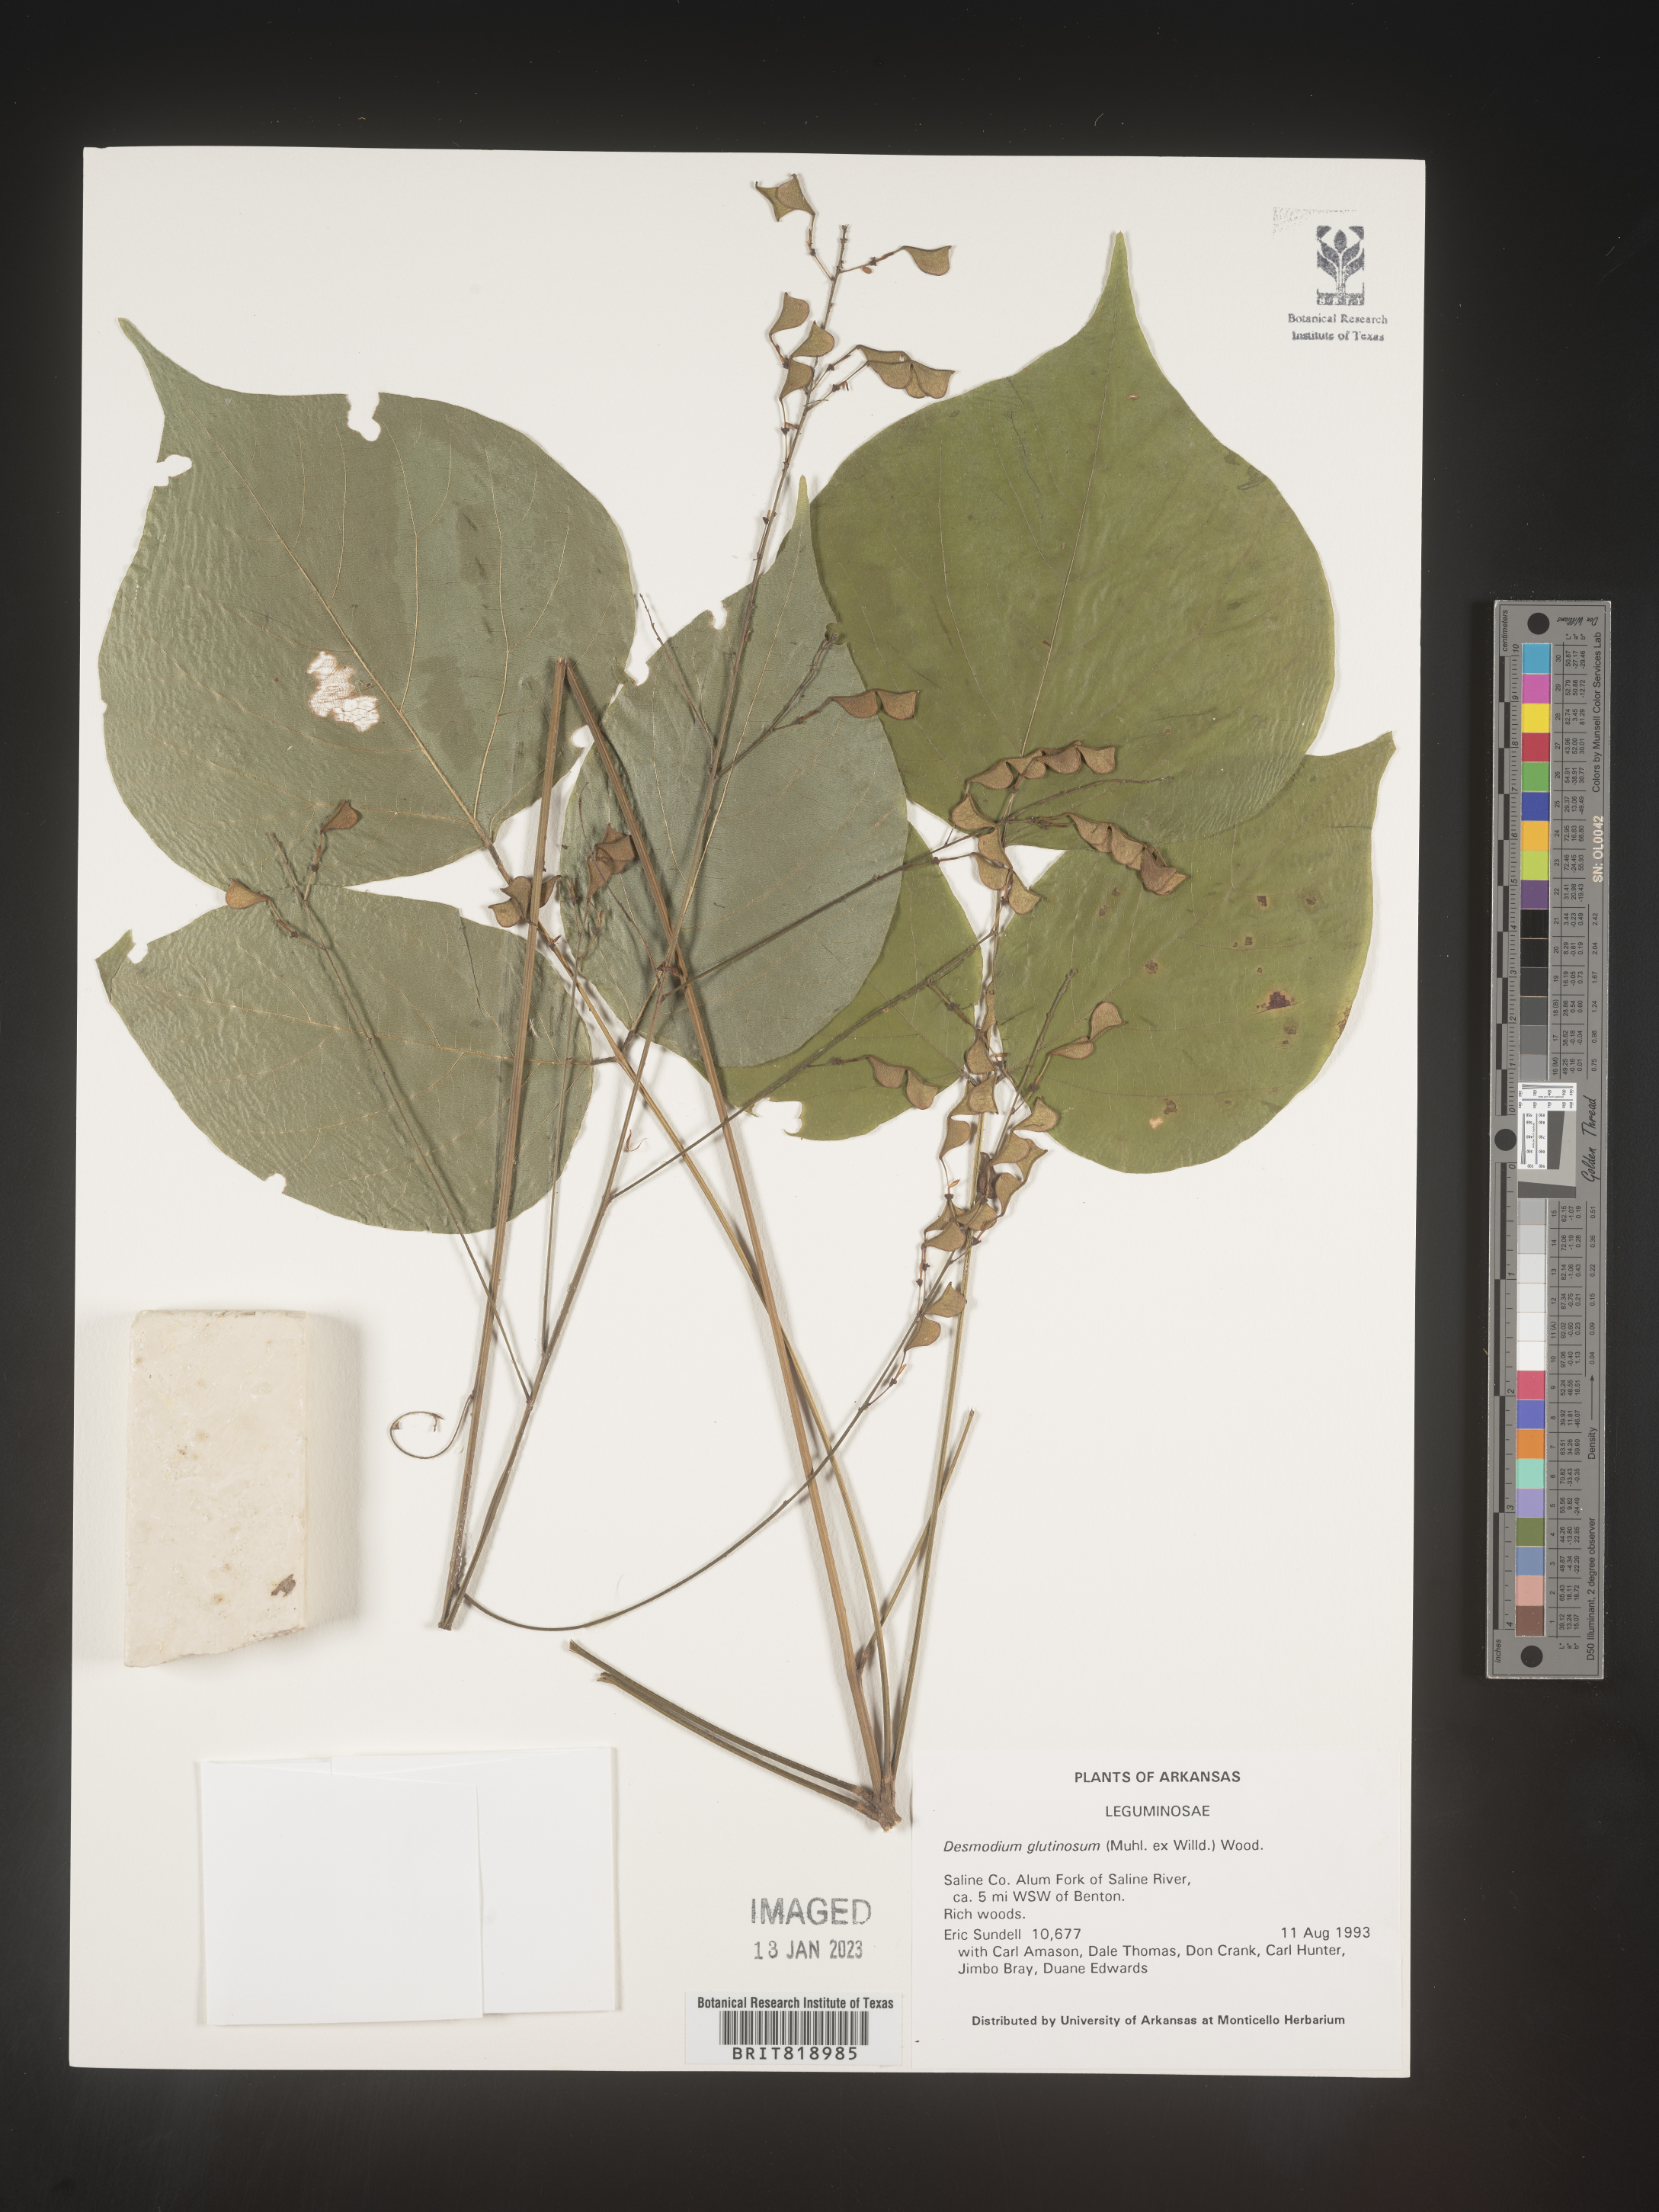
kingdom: Plantae
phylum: Tracheophyta
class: Magnoliopsida
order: Fabales
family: Fabaceae
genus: Hylodesmum
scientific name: Hylodesmum glutinosum
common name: Clustered-leaved tick-trefoil
